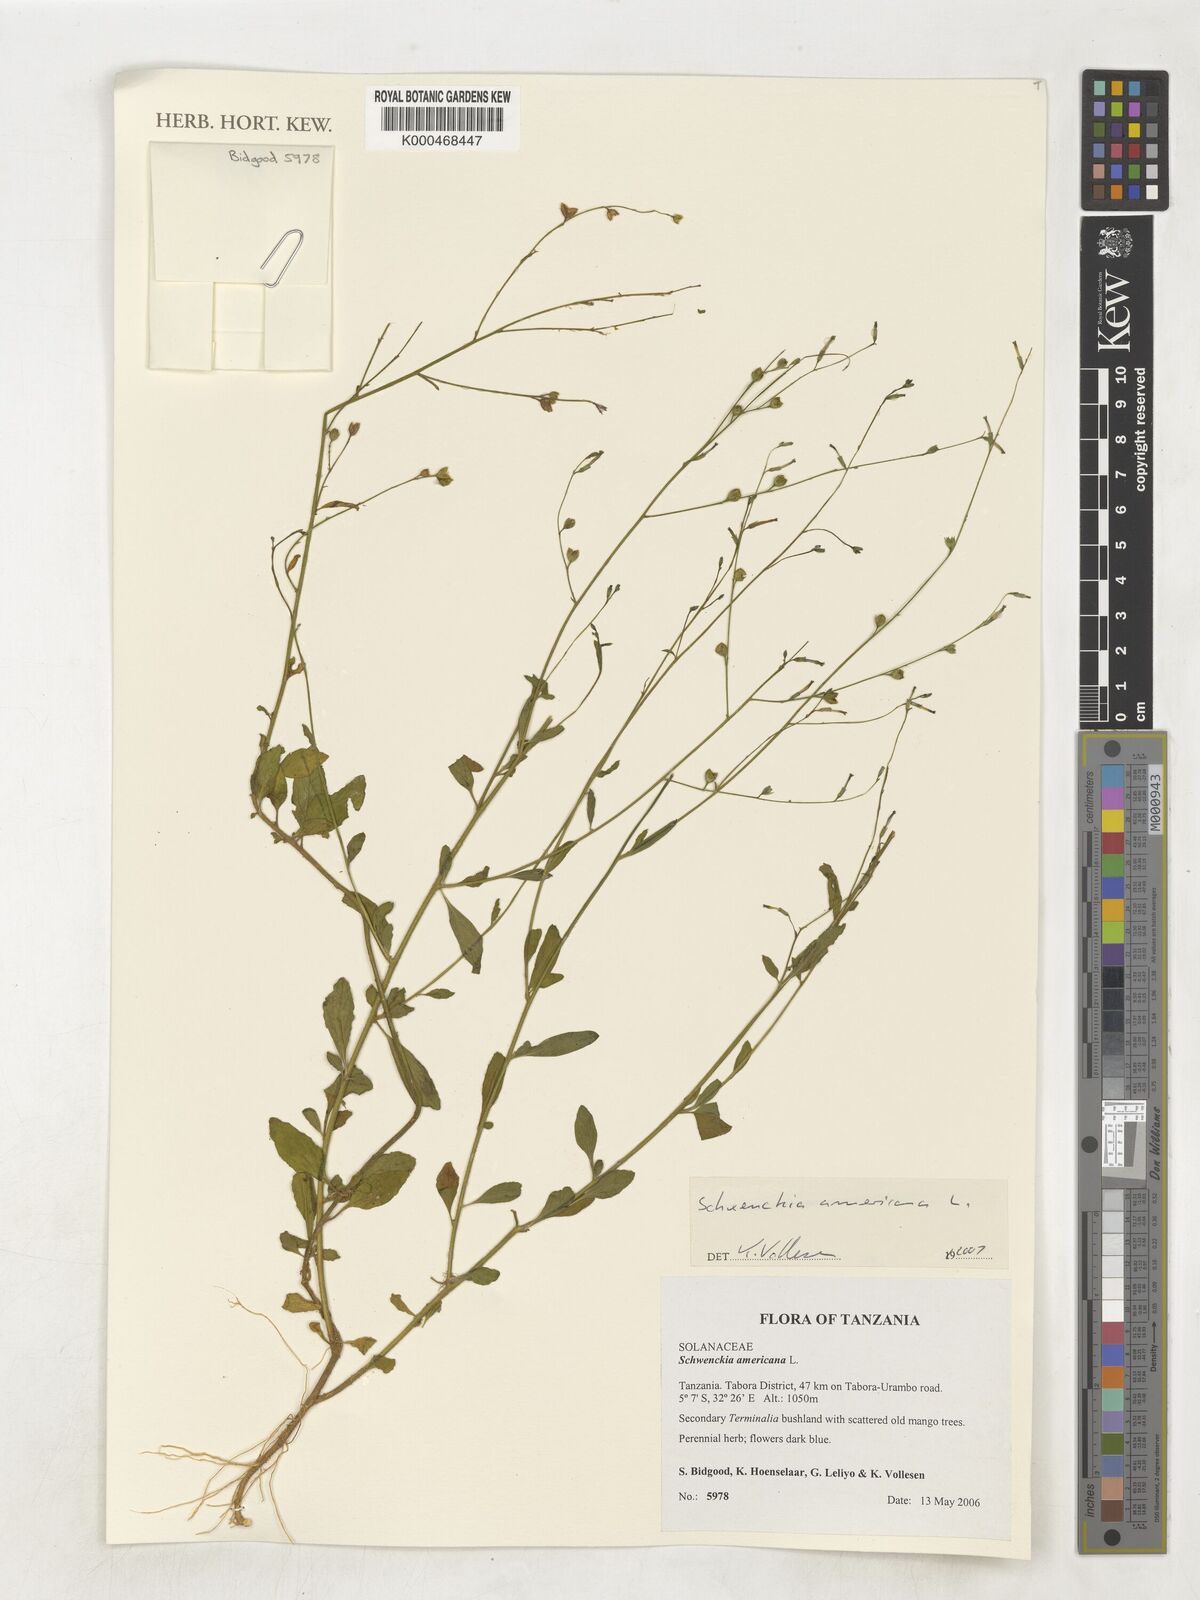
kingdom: Plantae
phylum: Tracheophyta
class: Magnoliopsida
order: Solanales
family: Solanaceae
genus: Schwenckia
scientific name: Schwenckia americana
